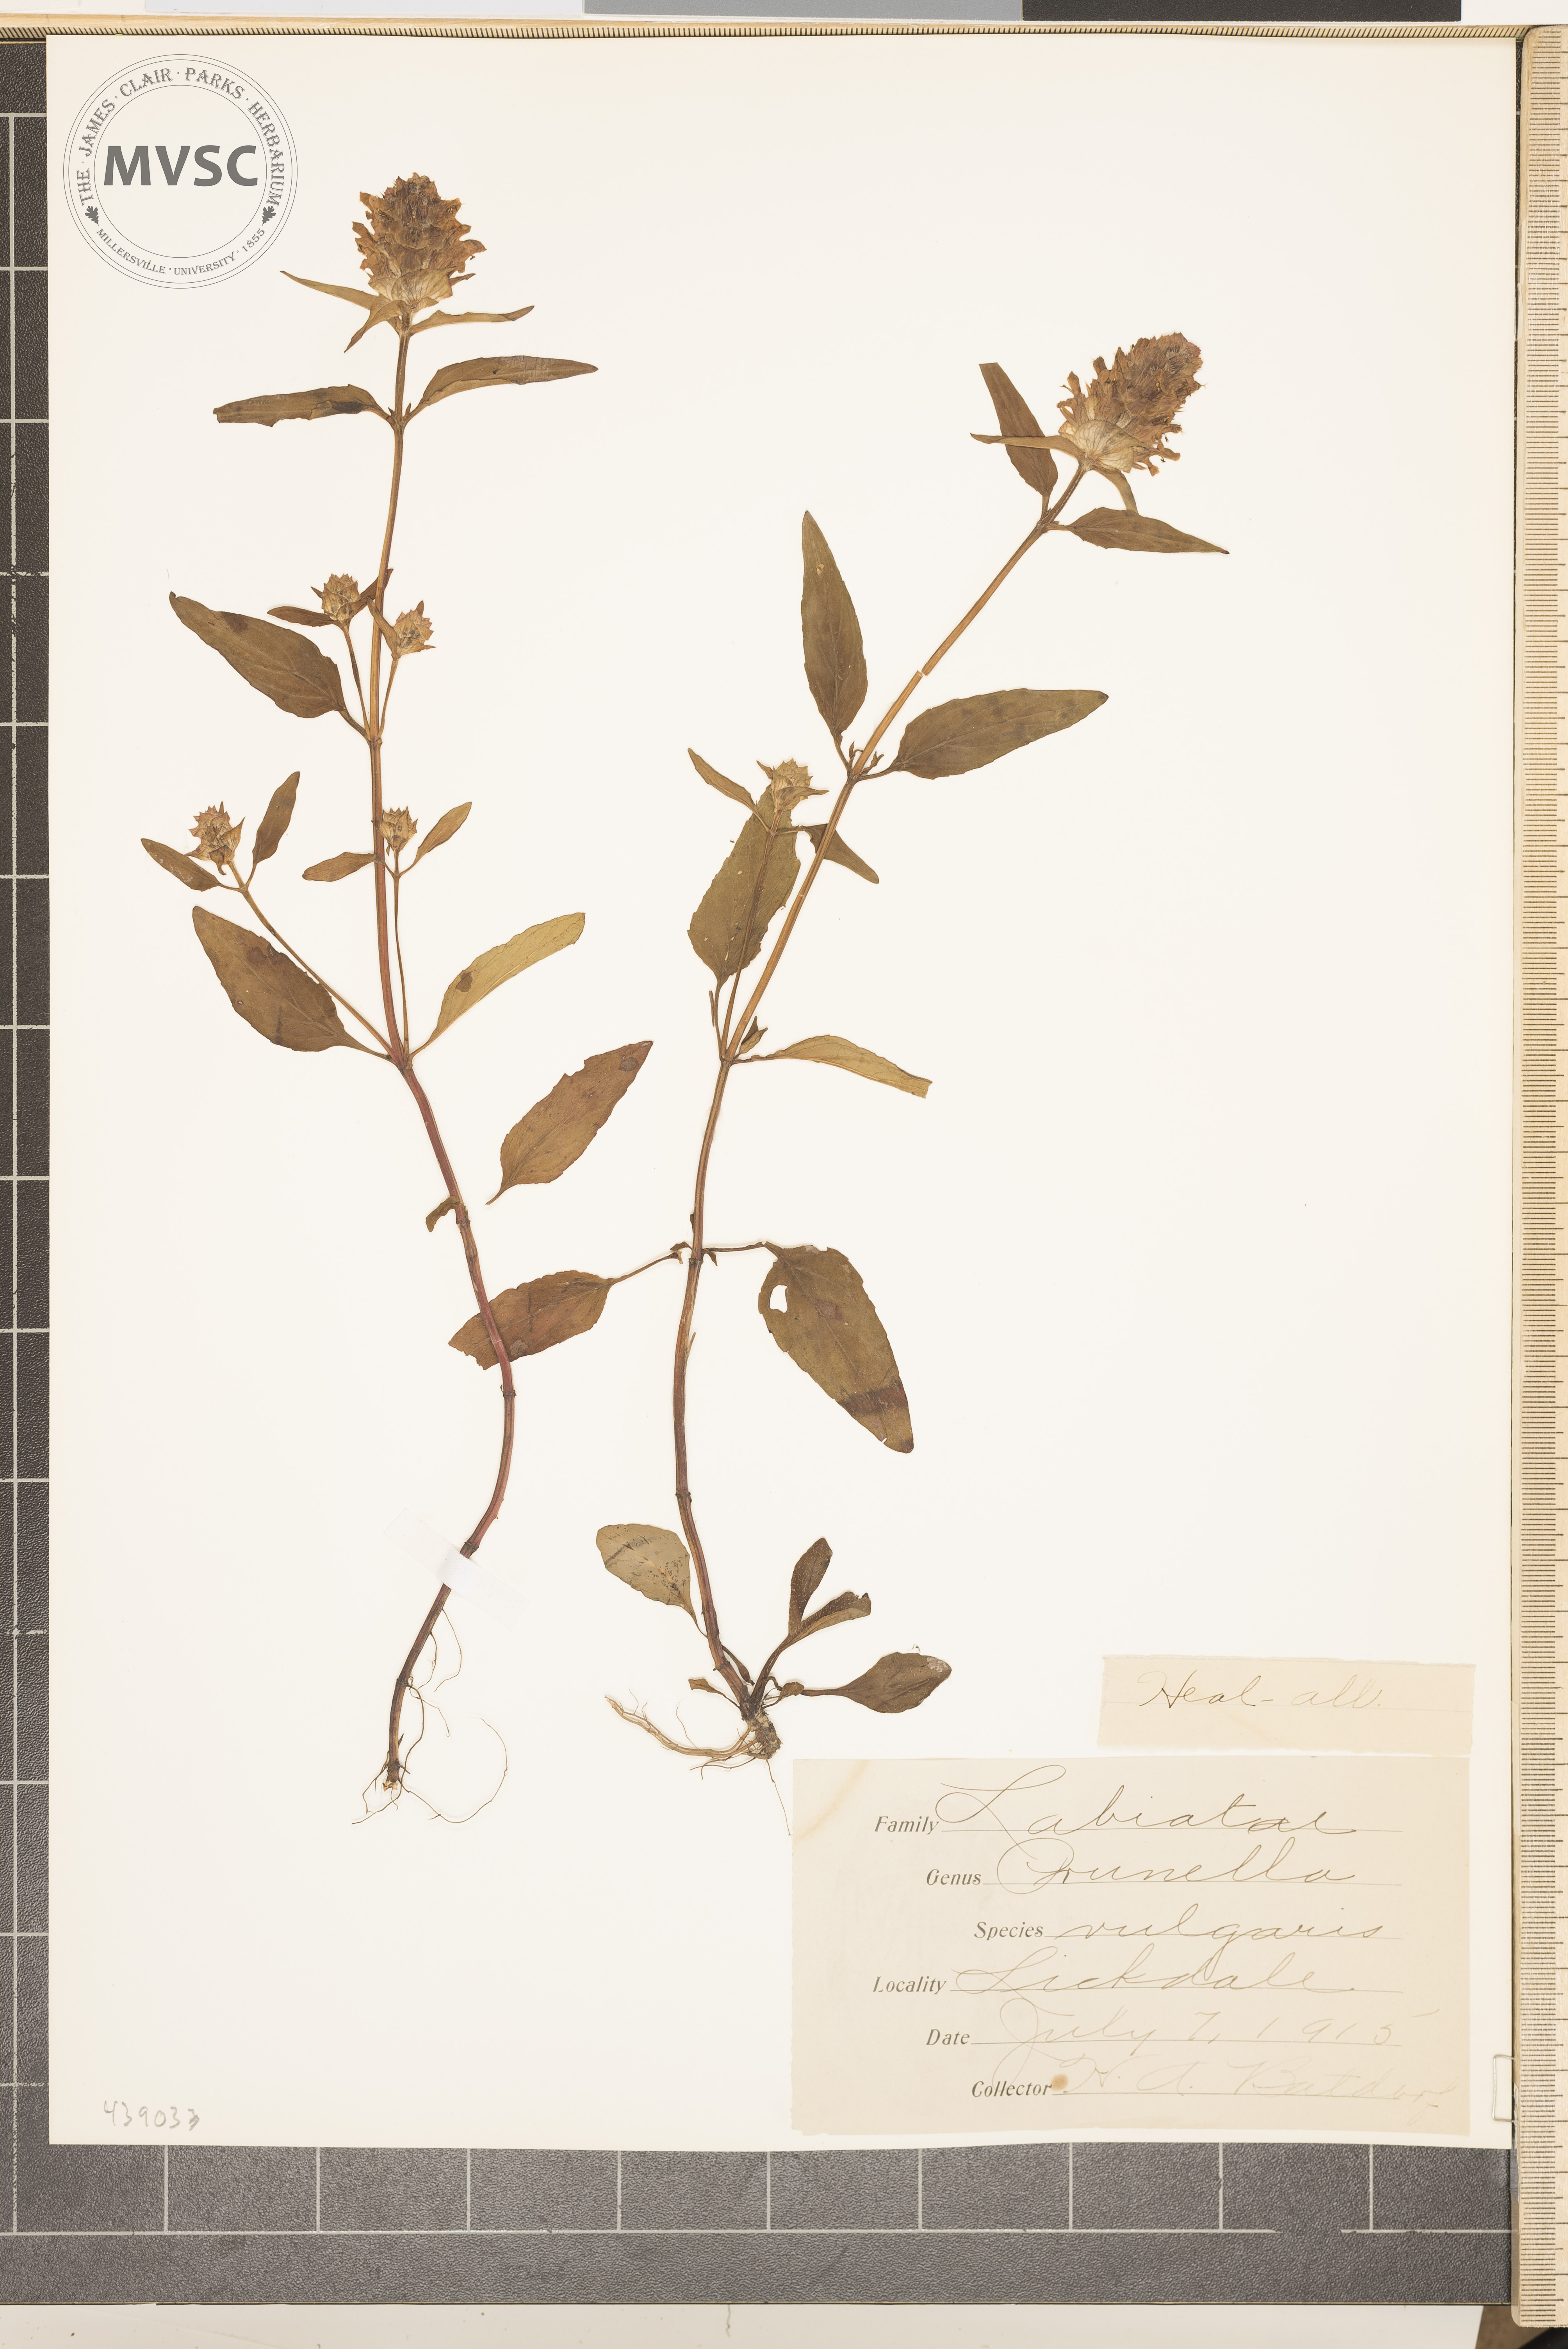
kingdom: Plantae
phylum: Tracheophyta
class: Magnoliopsida
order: Lamiales
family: Lamiaceae
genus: Prunella
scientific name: Prunella vulgaris
